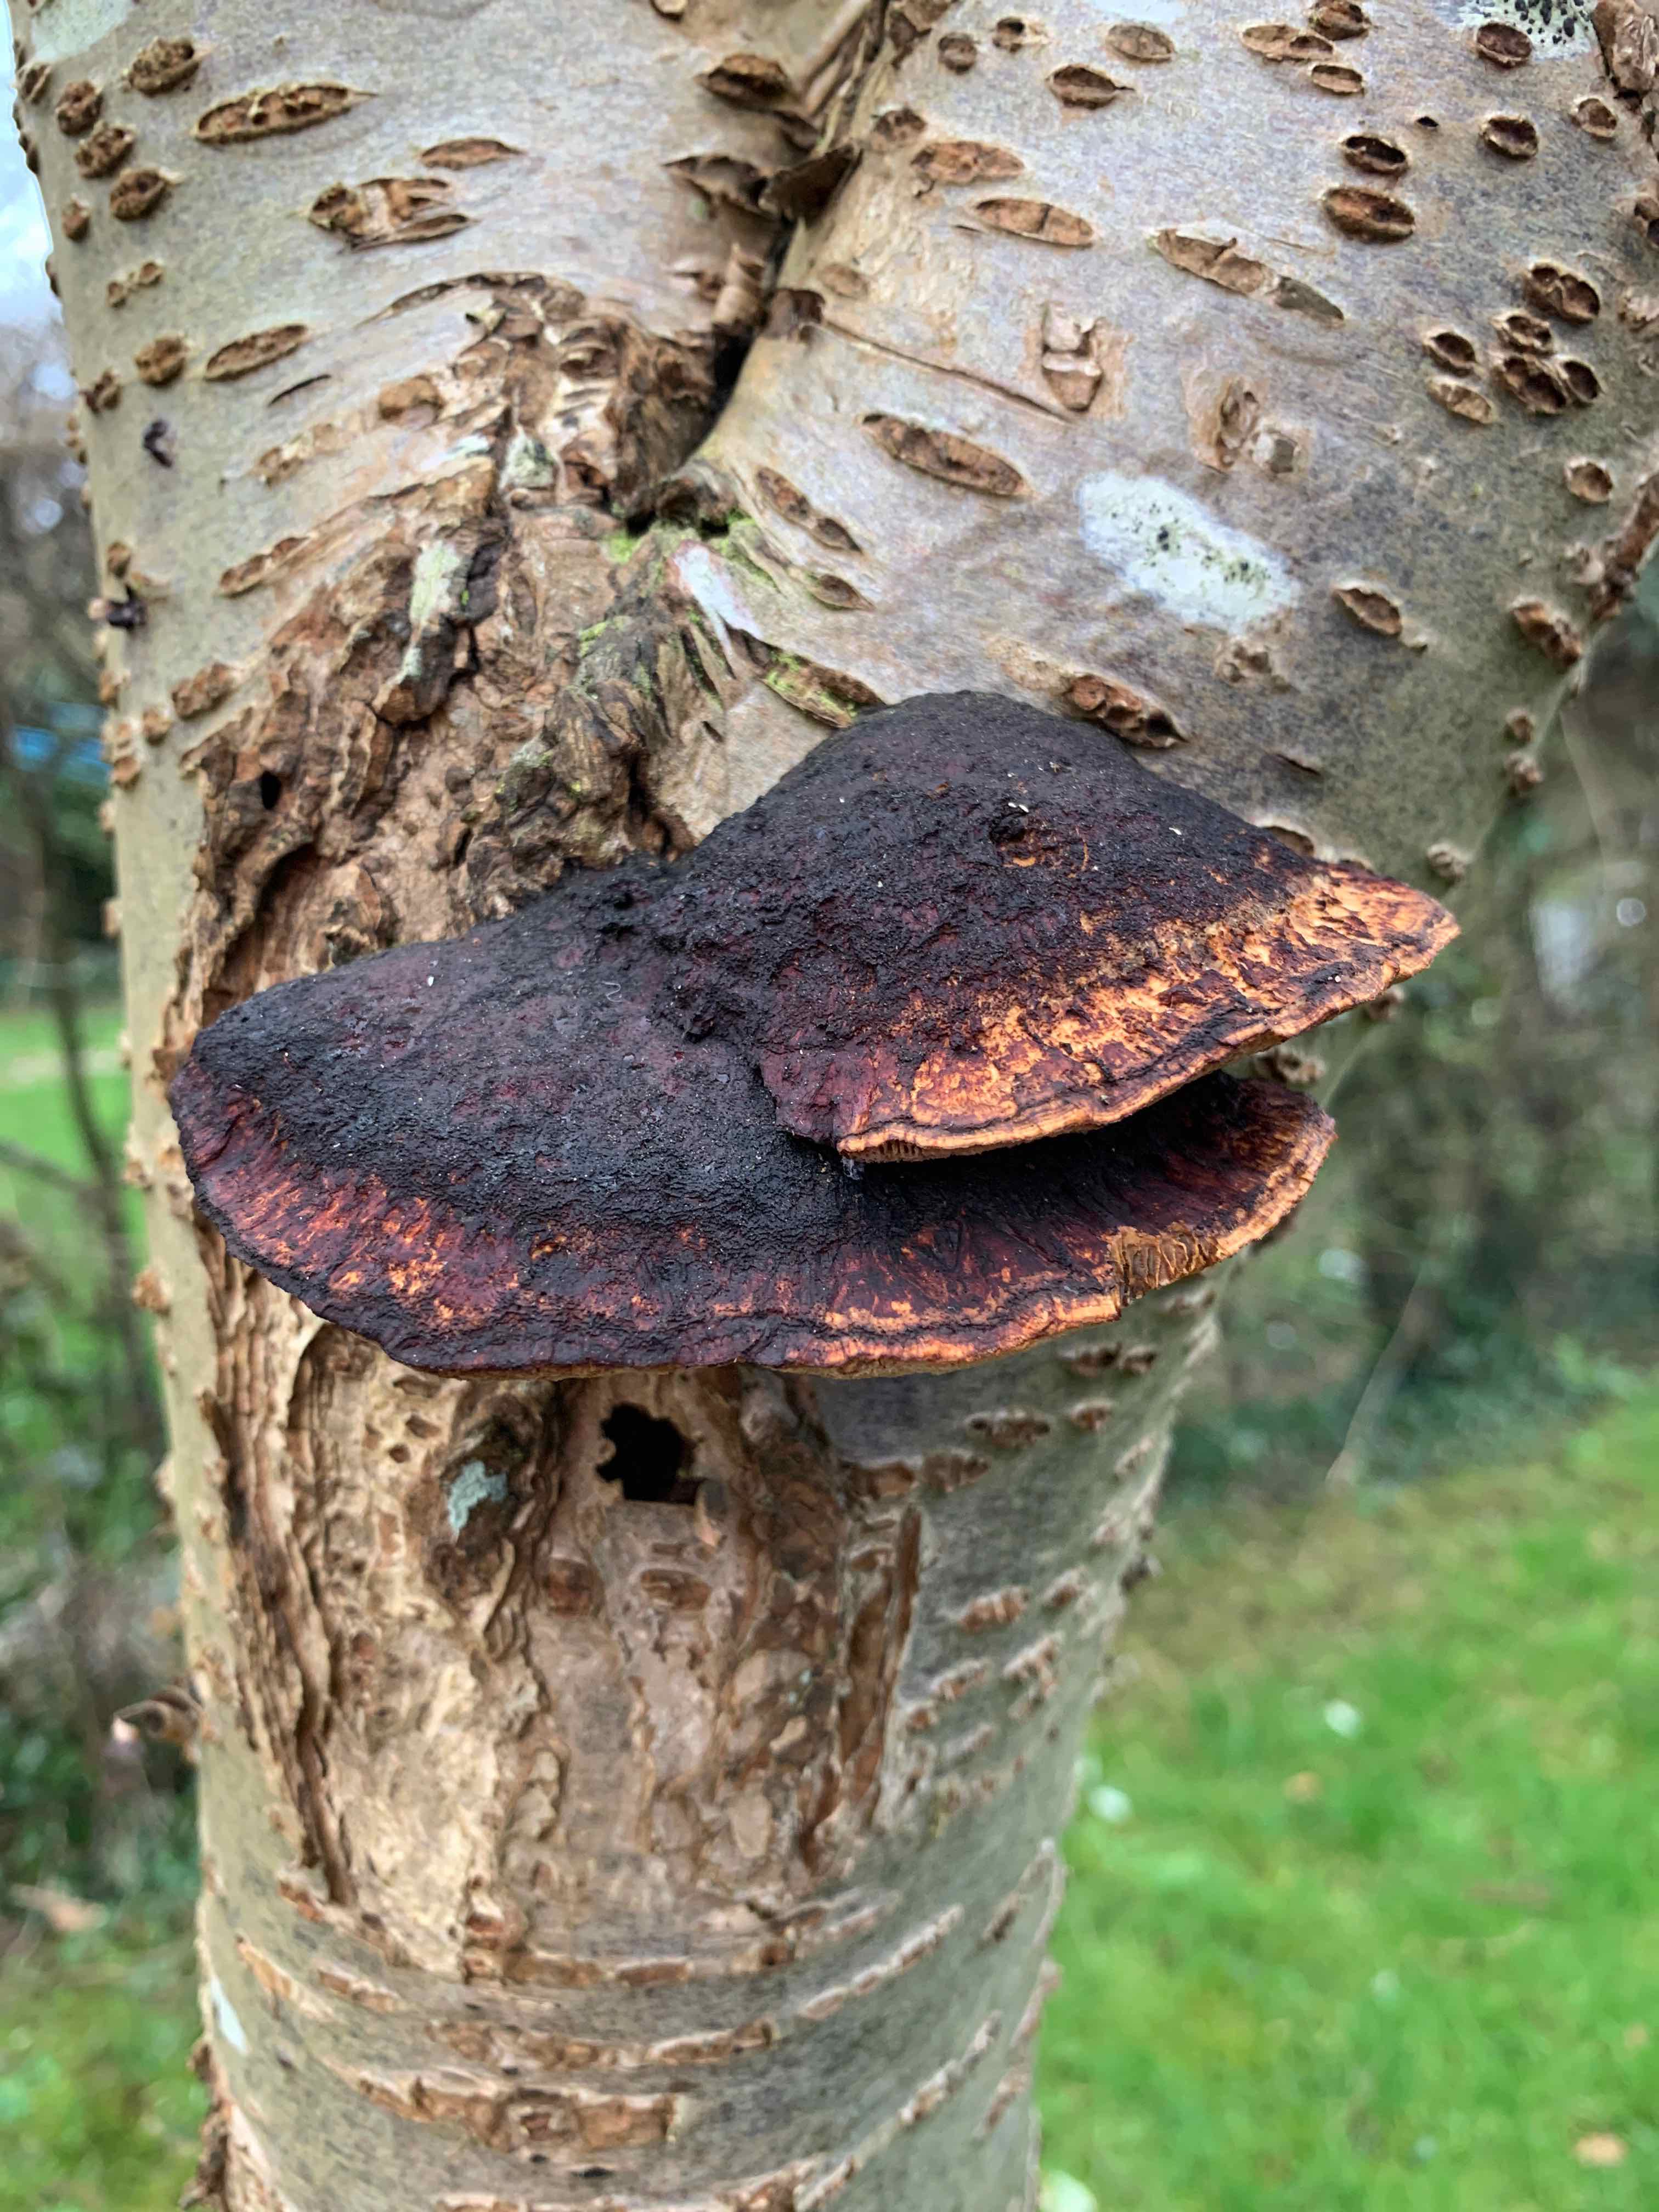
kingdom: Fungi
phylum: Basidiomycota
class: Agaricomycetes
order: Polyporales
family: Polyporaceae
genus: Daedaleopsis
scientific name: Daedaleopsis confragosa
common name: rødmende læderporesvamp
